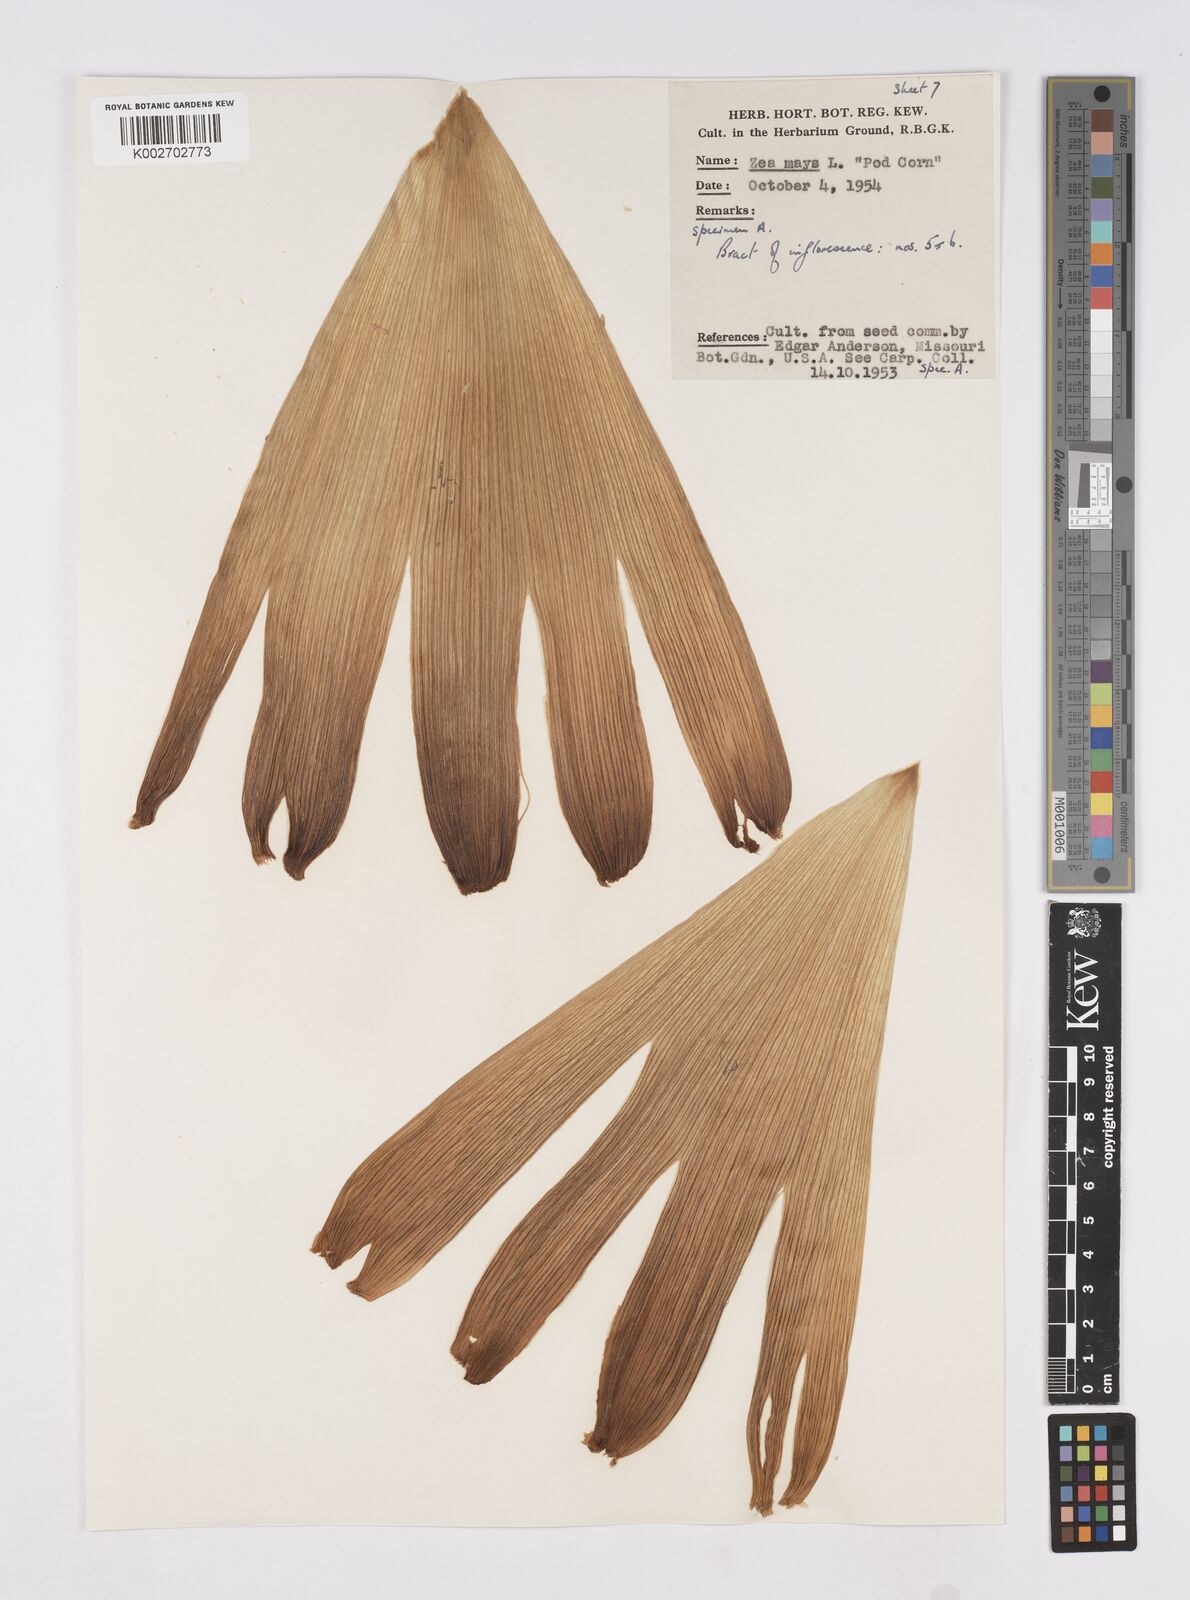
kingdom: Plantae
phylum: Tracheophyta
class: Liliopsida
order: Poales
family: Poaceae
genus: Zea
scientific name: Zea mays
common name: Maize
